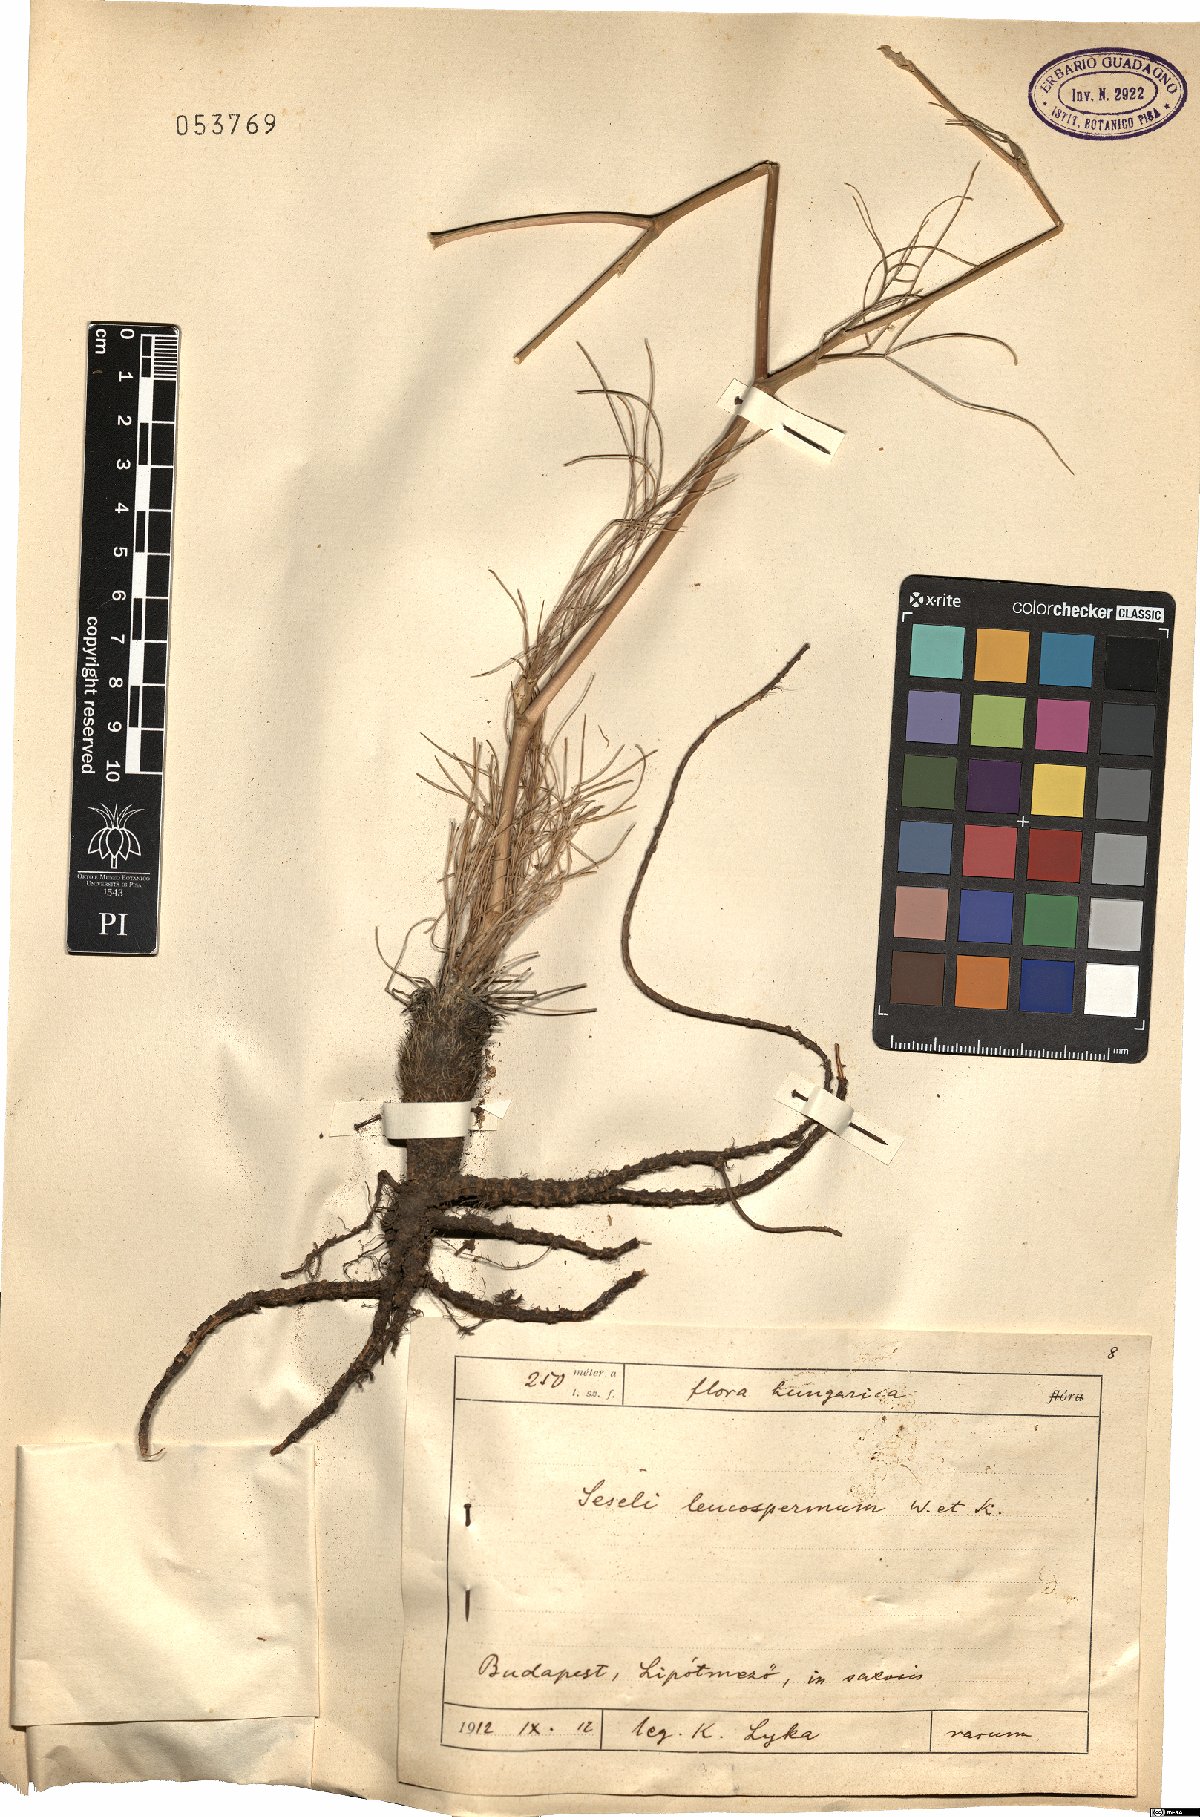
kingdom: Plantae
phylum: Tracheophyta
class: Magnoliopsida
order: Apiales
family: Apiaceae
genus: Seseli
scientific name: Seseli leucospermum
